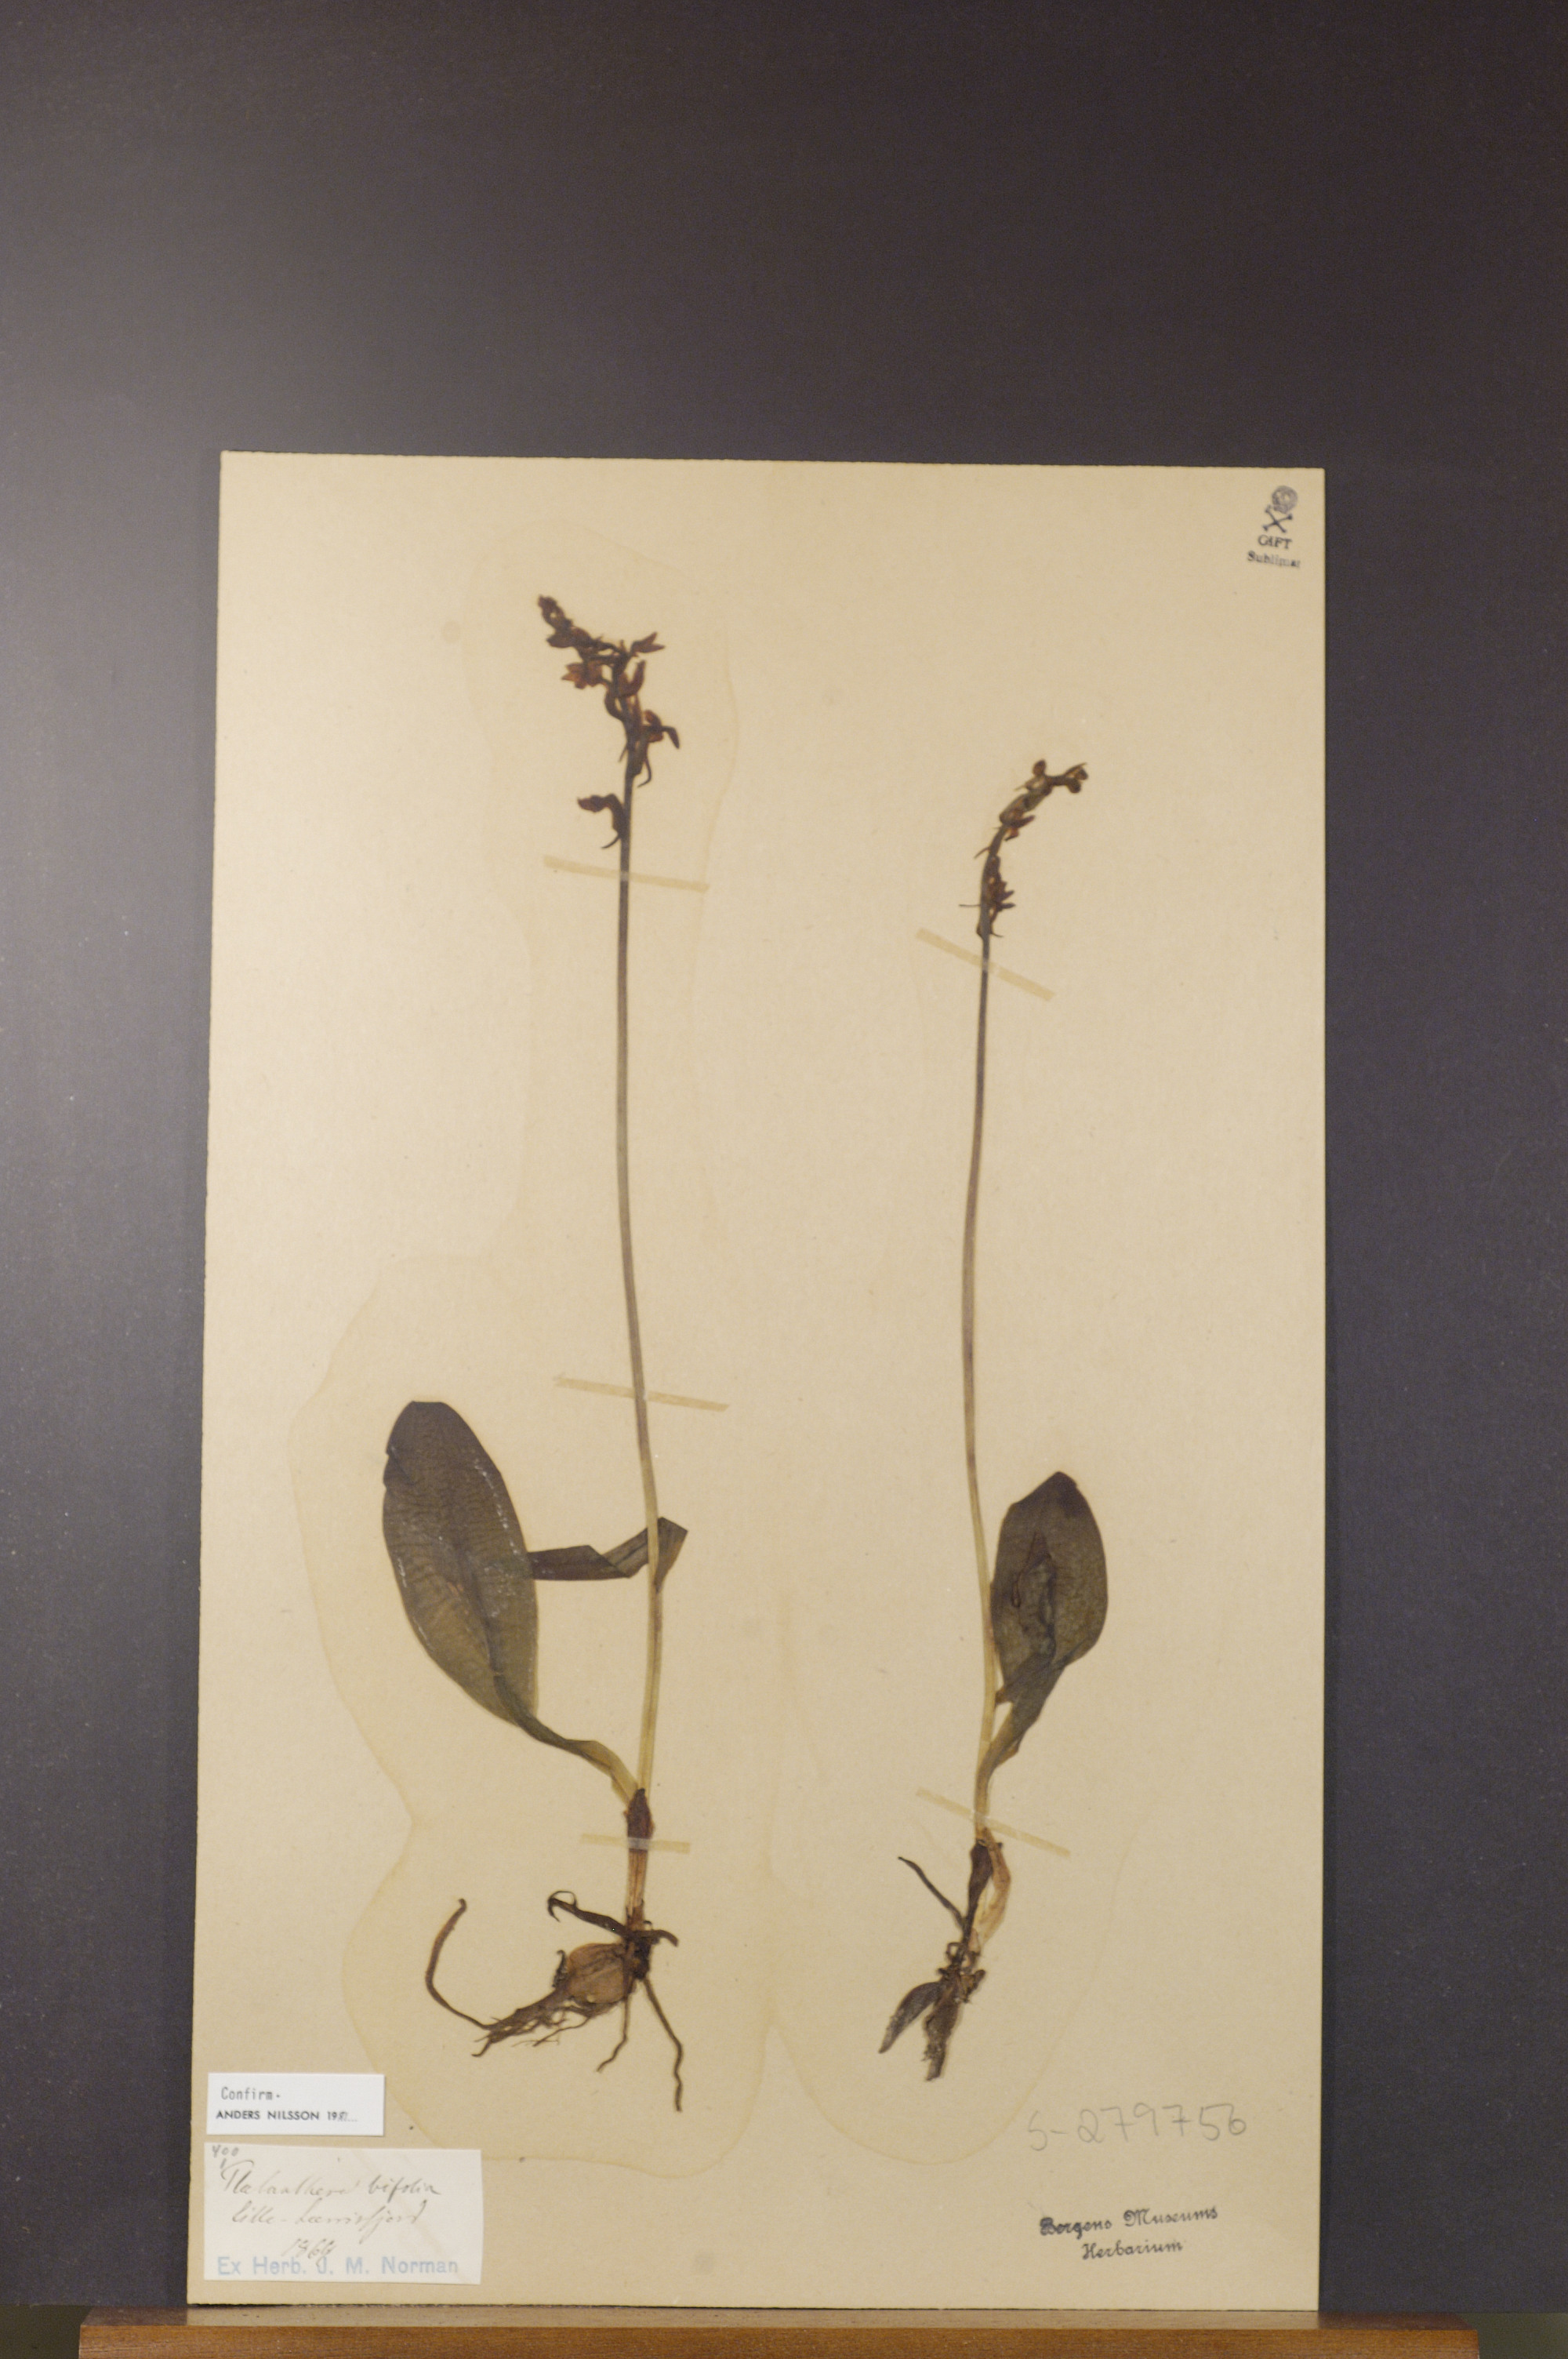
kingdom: Plantae
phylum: Tracheophyta
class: Liliopsida
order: Asparagales
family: Orchidaceae
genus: Platanthera
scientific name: Platanthera bifolia
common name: Lesser butterfly-orchid
